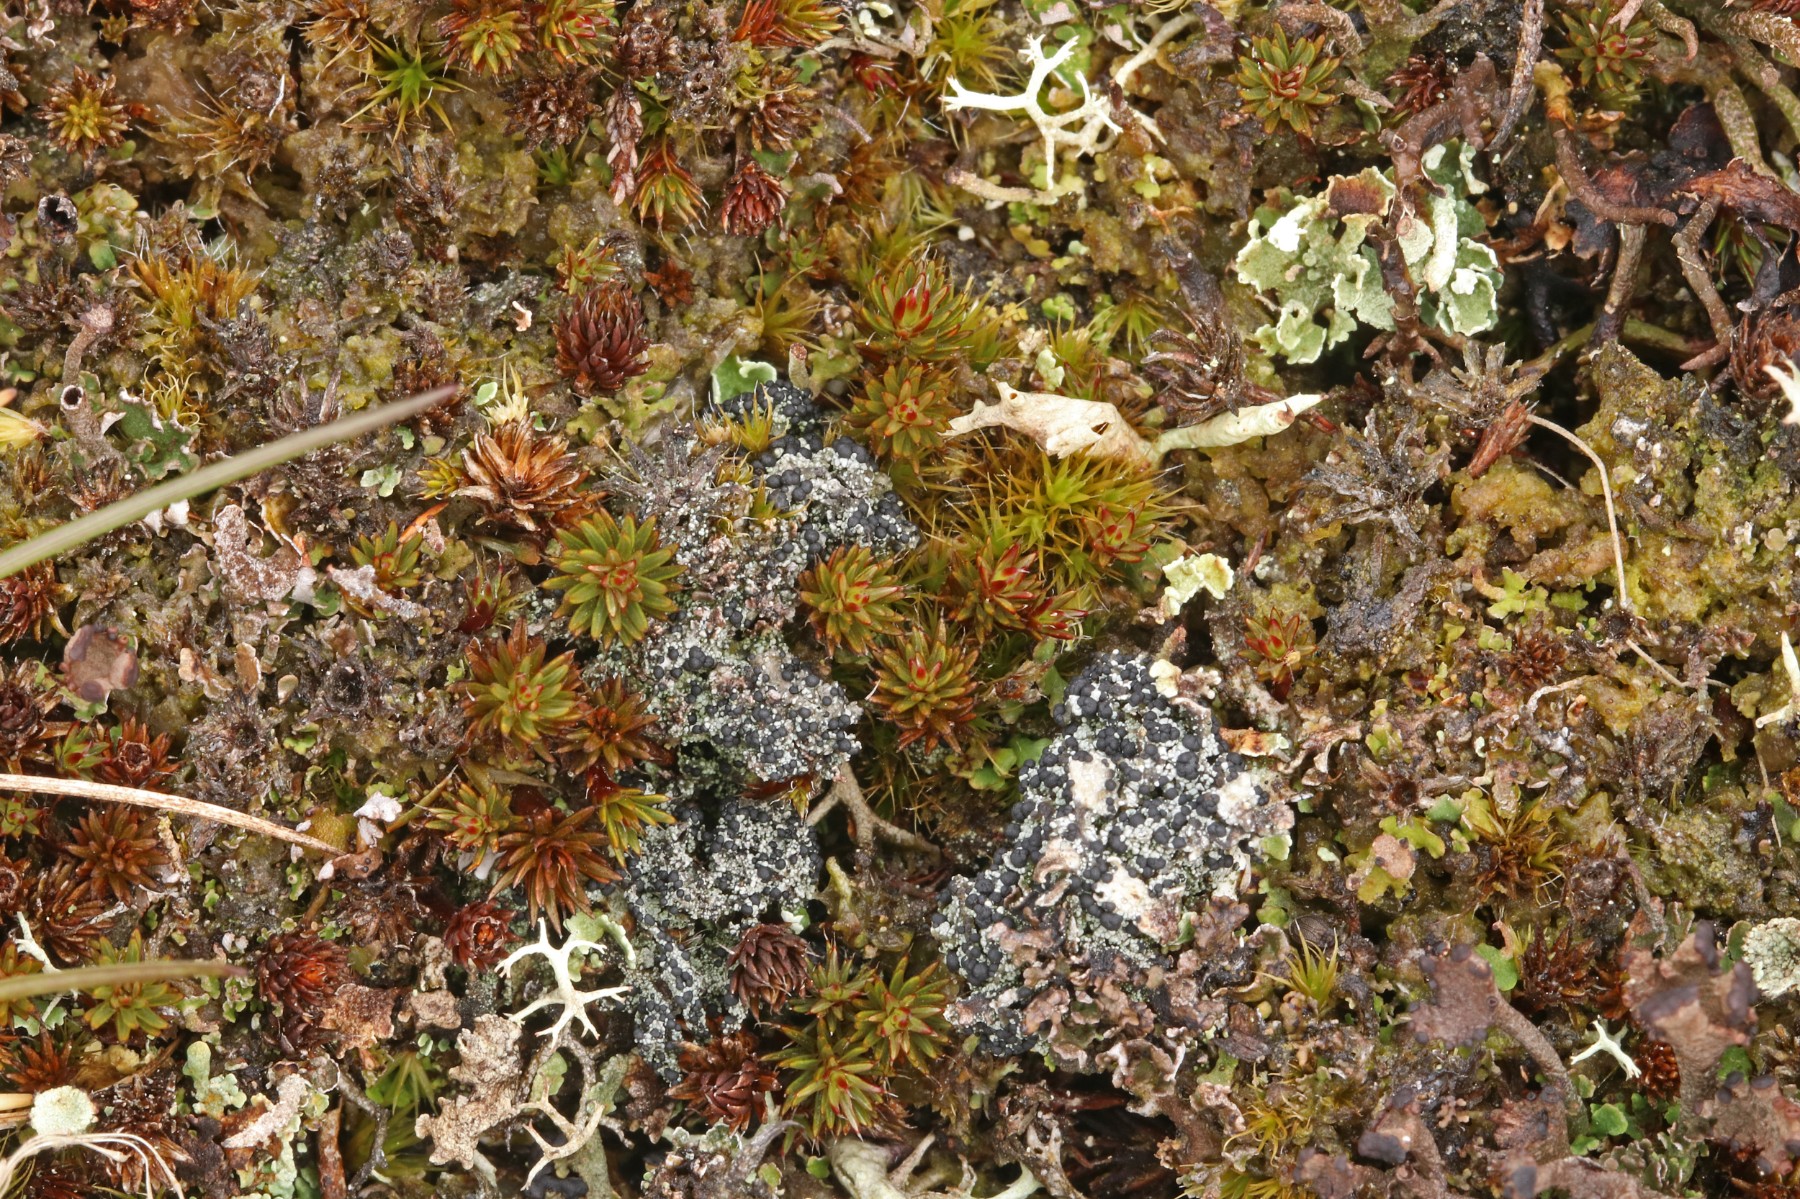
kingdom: Fungi
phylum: Ascomycota
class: Lecanoromycetes
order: Lecanorales
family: Byssolomataceae
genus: Micarea
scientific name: Micarea lignaria
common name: tørve-knaplav
